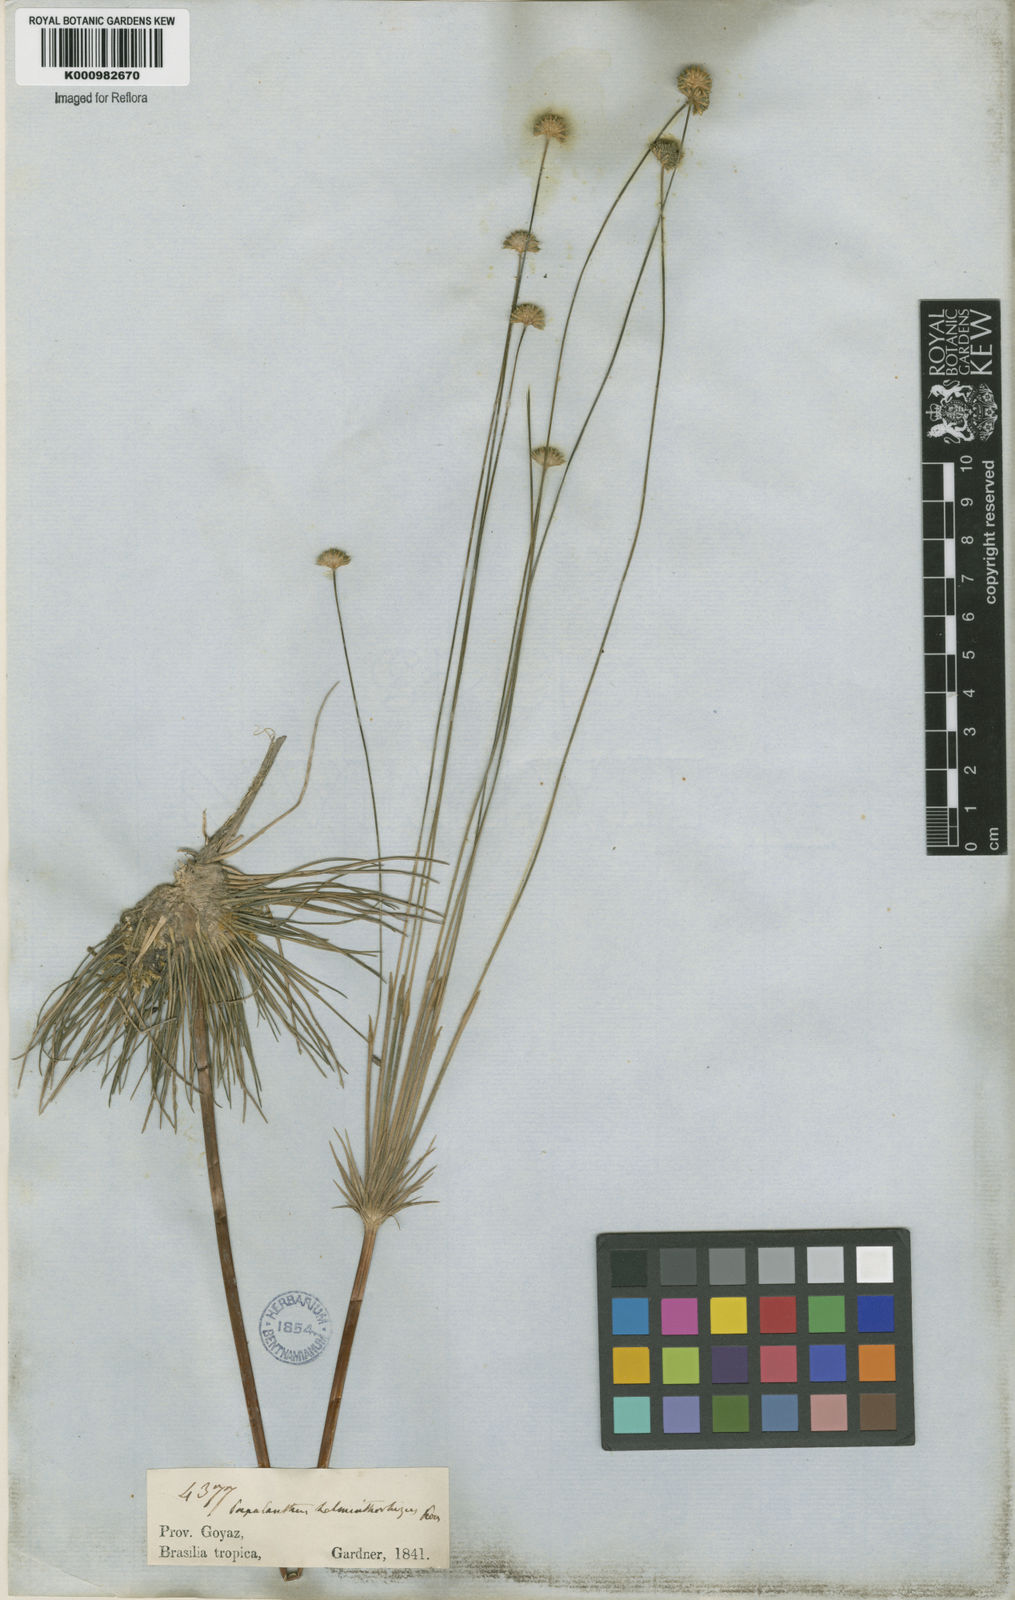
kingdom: Plantae
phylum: Tracheophyta
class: Liliopsida
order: Poales
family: Eriocaulaceae
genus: Syngonanthus
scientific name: Syngonanthus
